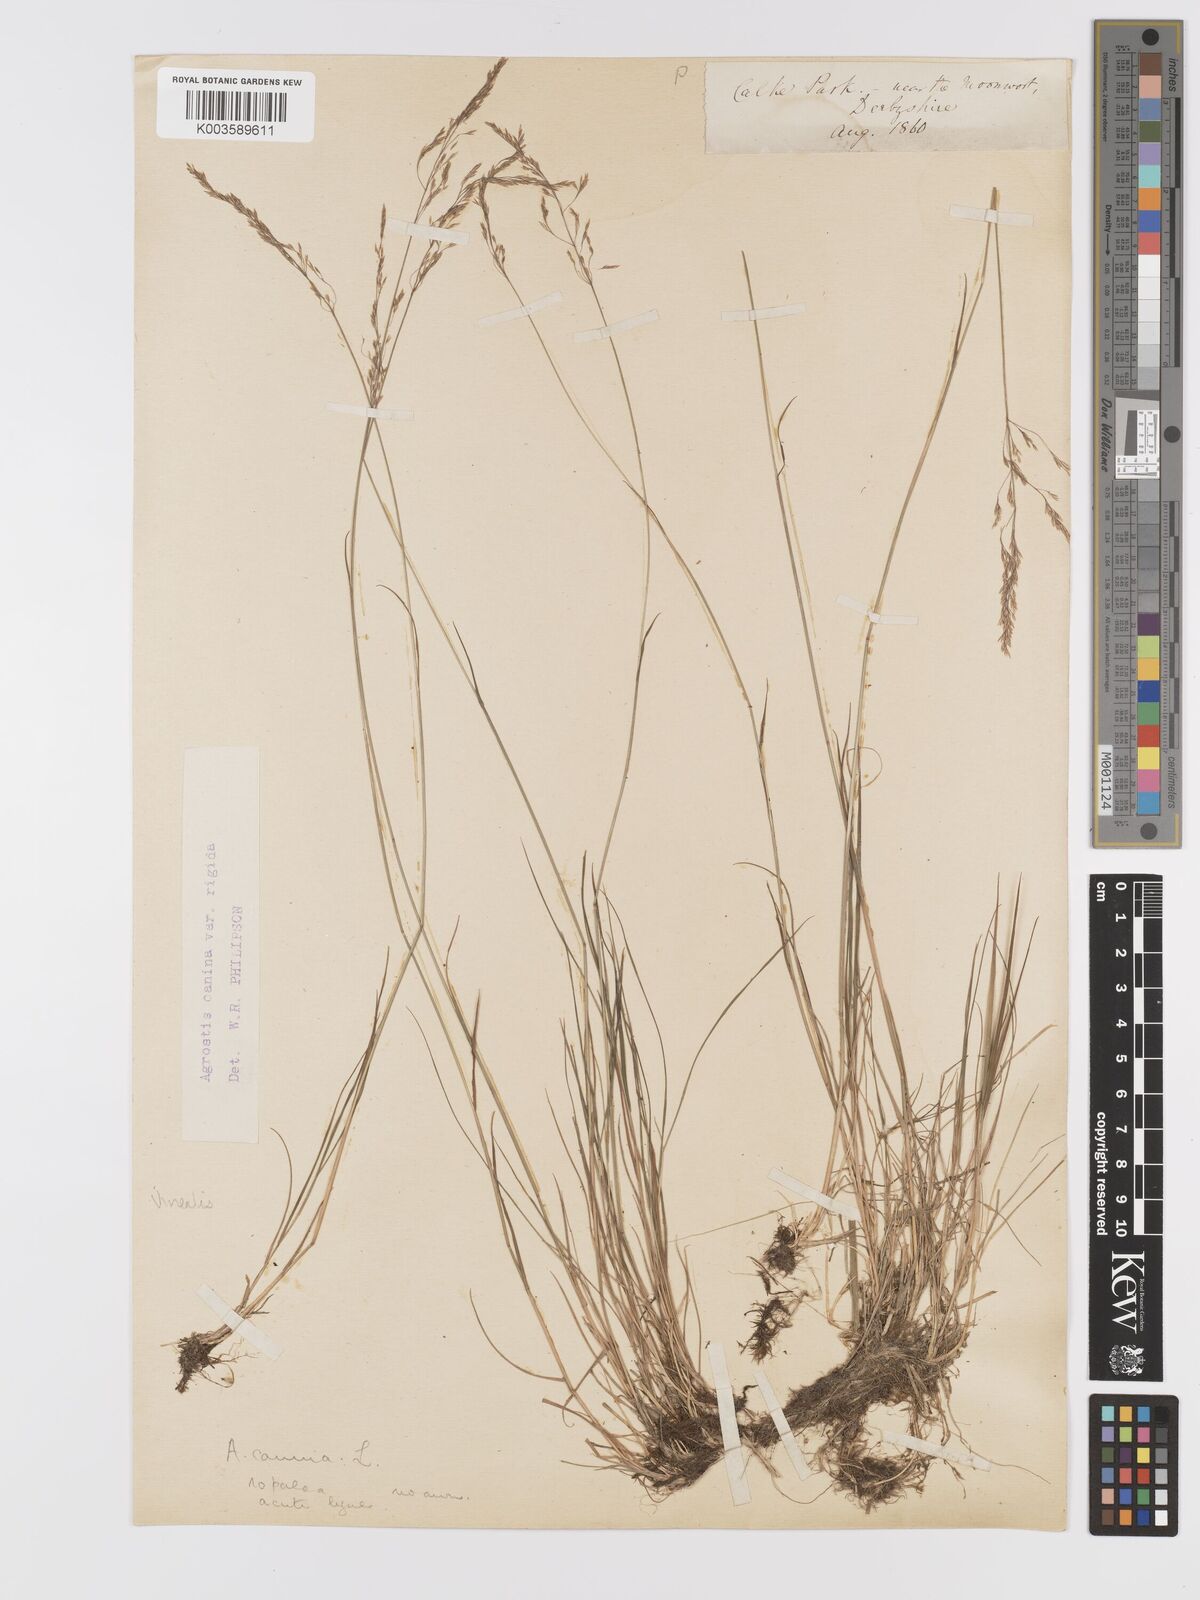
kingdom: Plantae
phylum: Tracheophyta
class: Liliopsida
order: Poales
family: Poaceae
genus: Agrostis
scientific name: Agrostis
